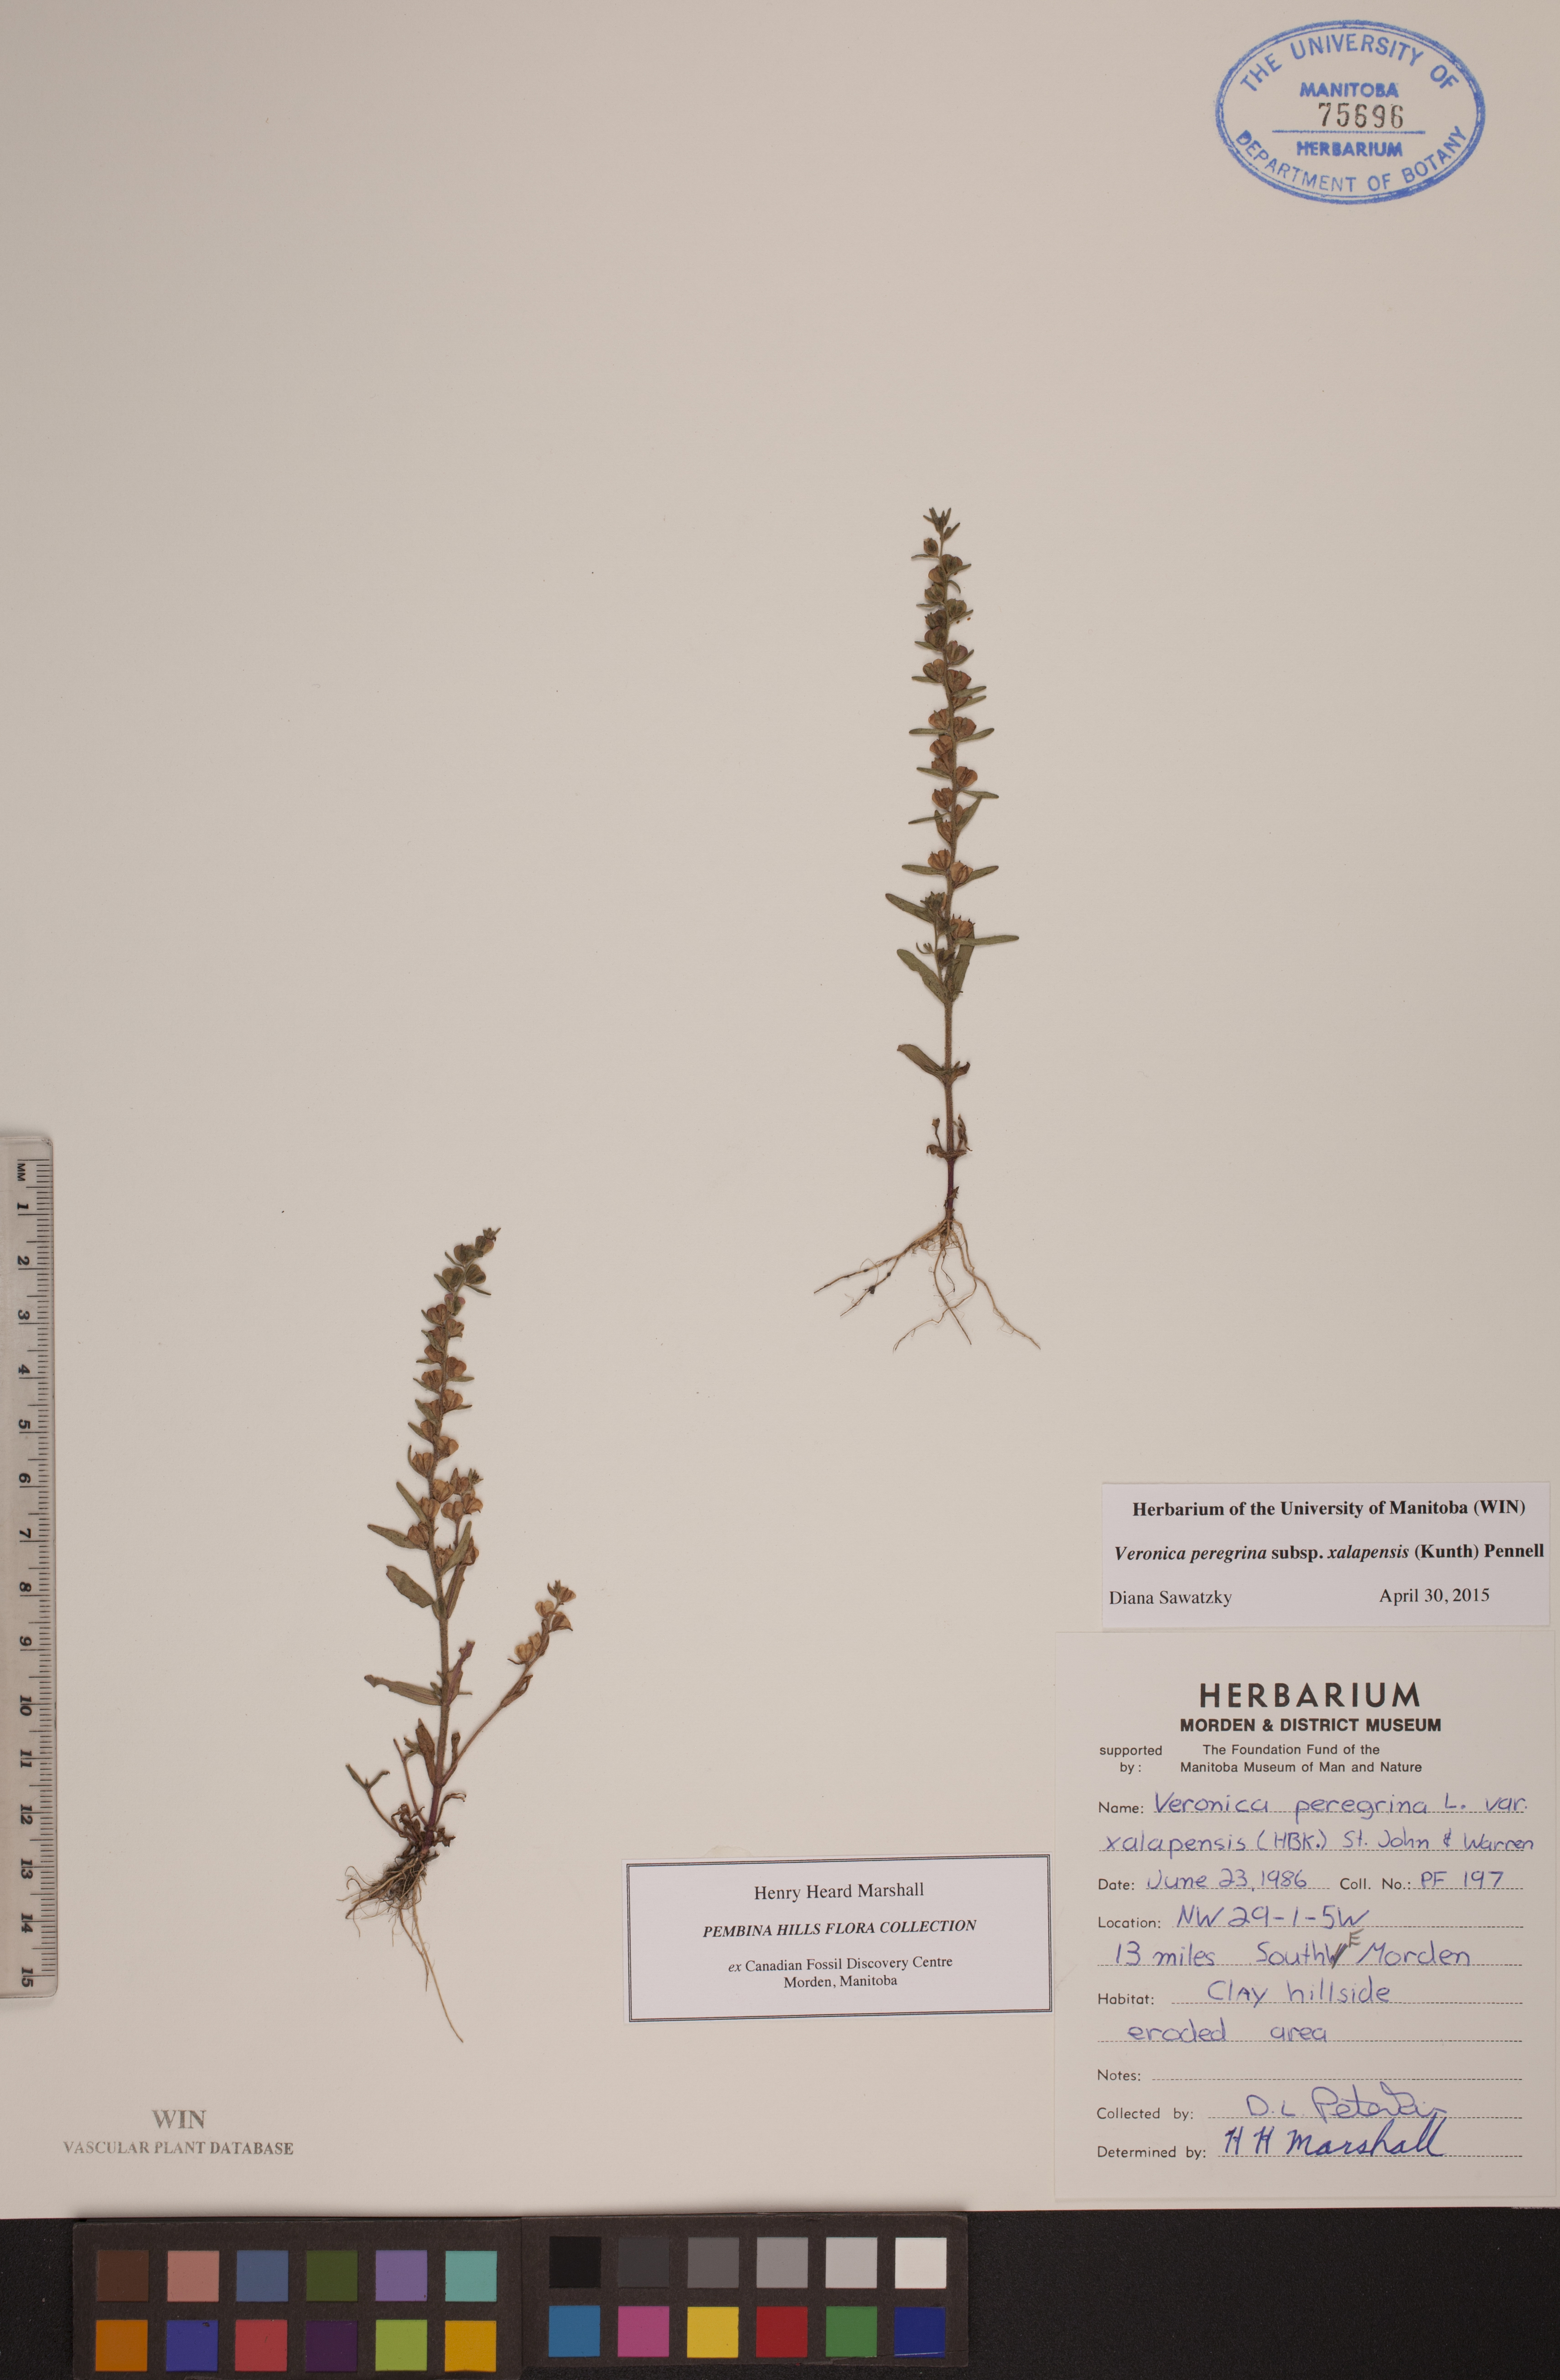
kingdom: Plantae
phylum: Tracheophyta
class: Magnoliopsida
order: Lamiales
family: Plantaginaceae
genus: Veronica
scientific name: Veronica peregrina
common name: Neckweed
